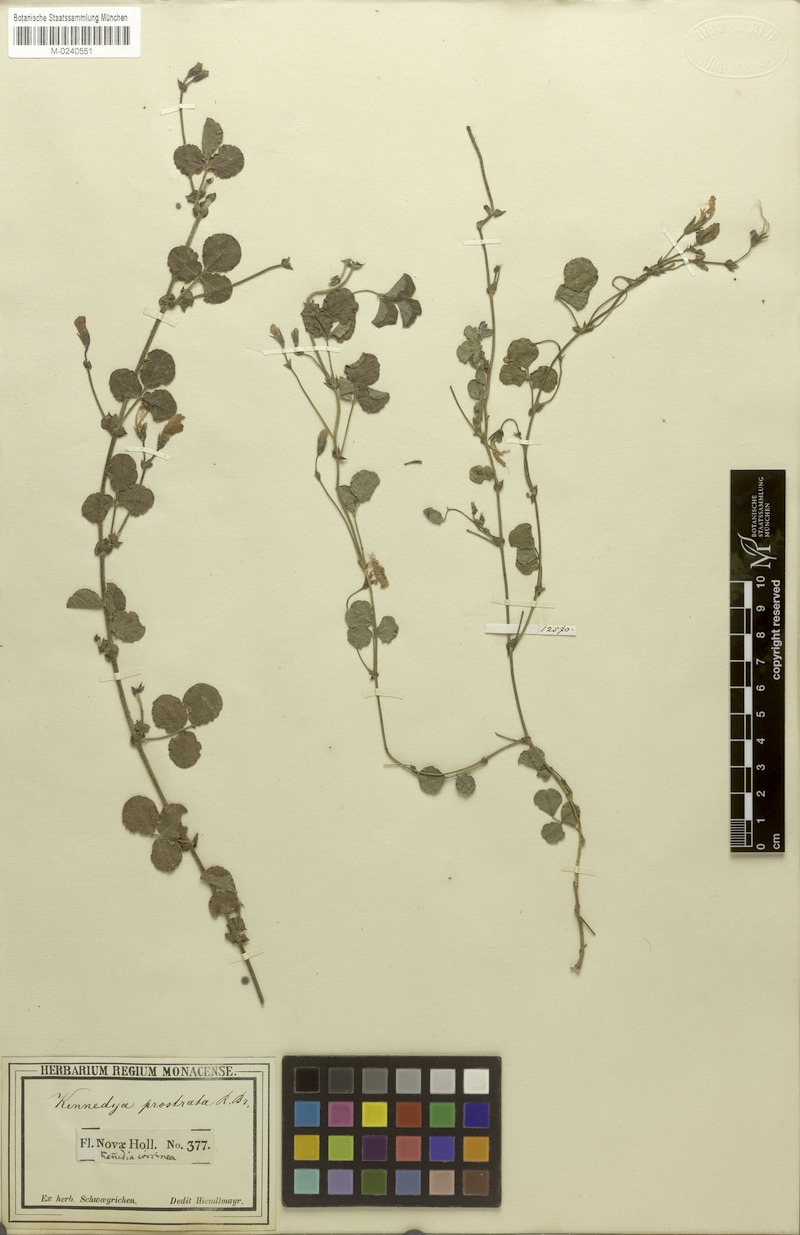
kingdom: Plantae
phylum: Tracheophyta
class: Magnoliopsida
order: Fabales
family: Fabaceae
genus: Kennedia
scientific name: Kennedia prostrata
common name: Running-postman
